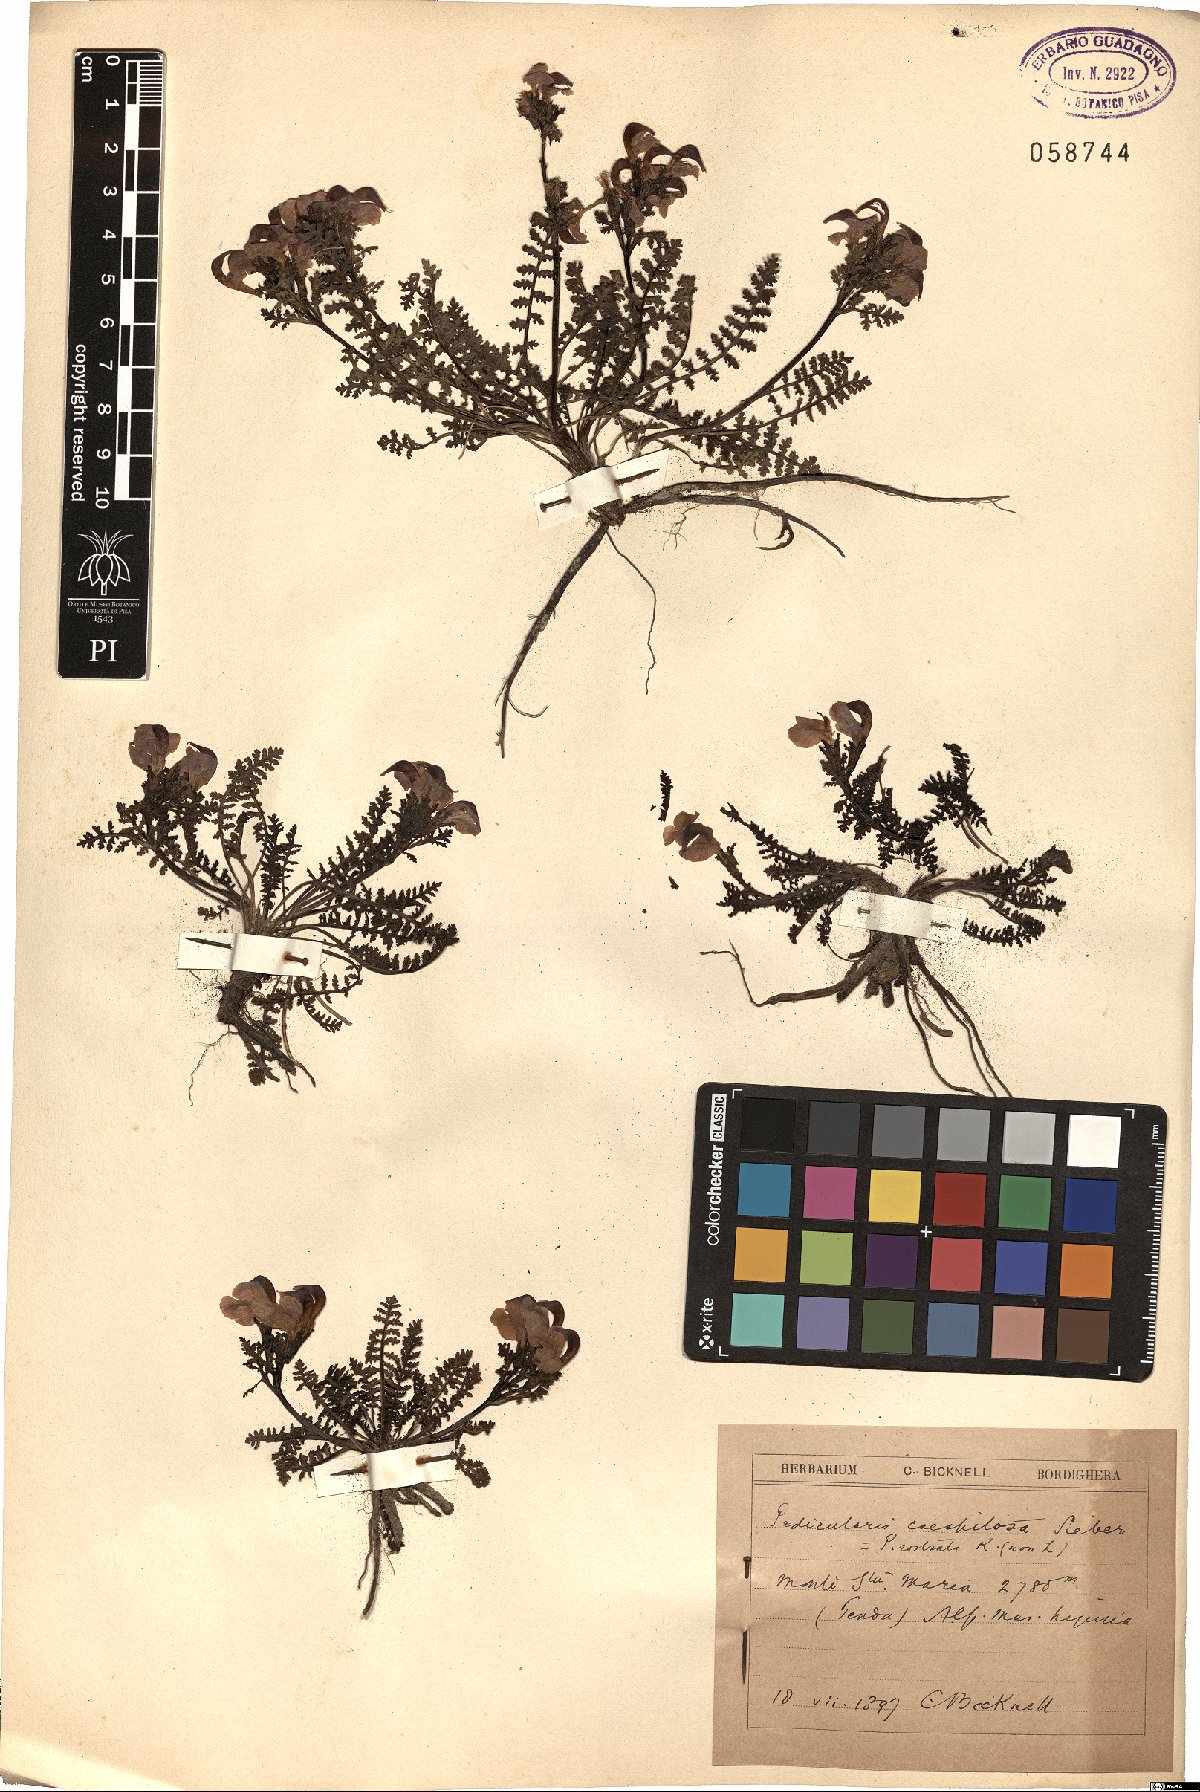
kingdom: Plantae
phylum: Tracheophyta
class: Magnoliopsida
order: Lamiales
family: Orobanchaceae
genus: Pedicularis
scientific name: Pedicularis kerneri
